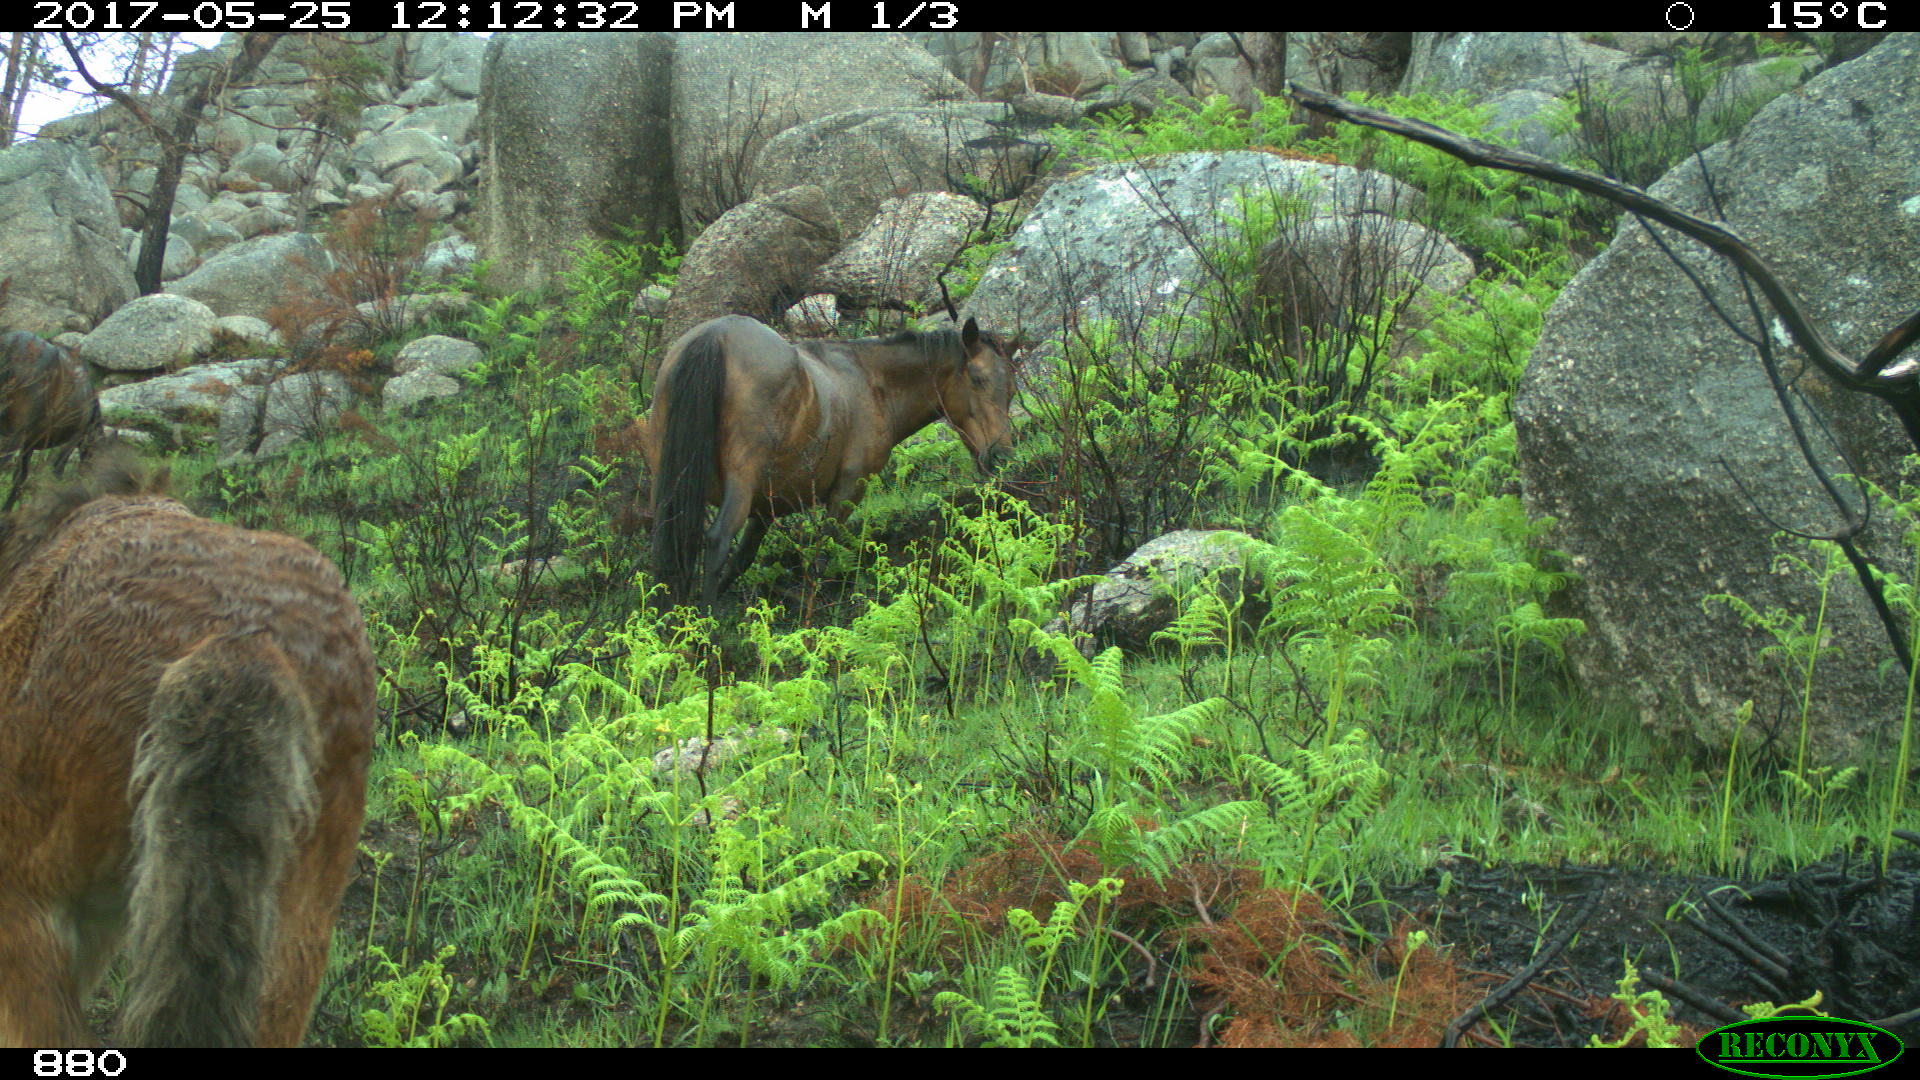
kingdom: Animalia
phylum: Chordata
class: Mammalia
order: Perissodactyla
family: Equidae
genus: Equus
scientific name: Equus caballus
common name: Horse
